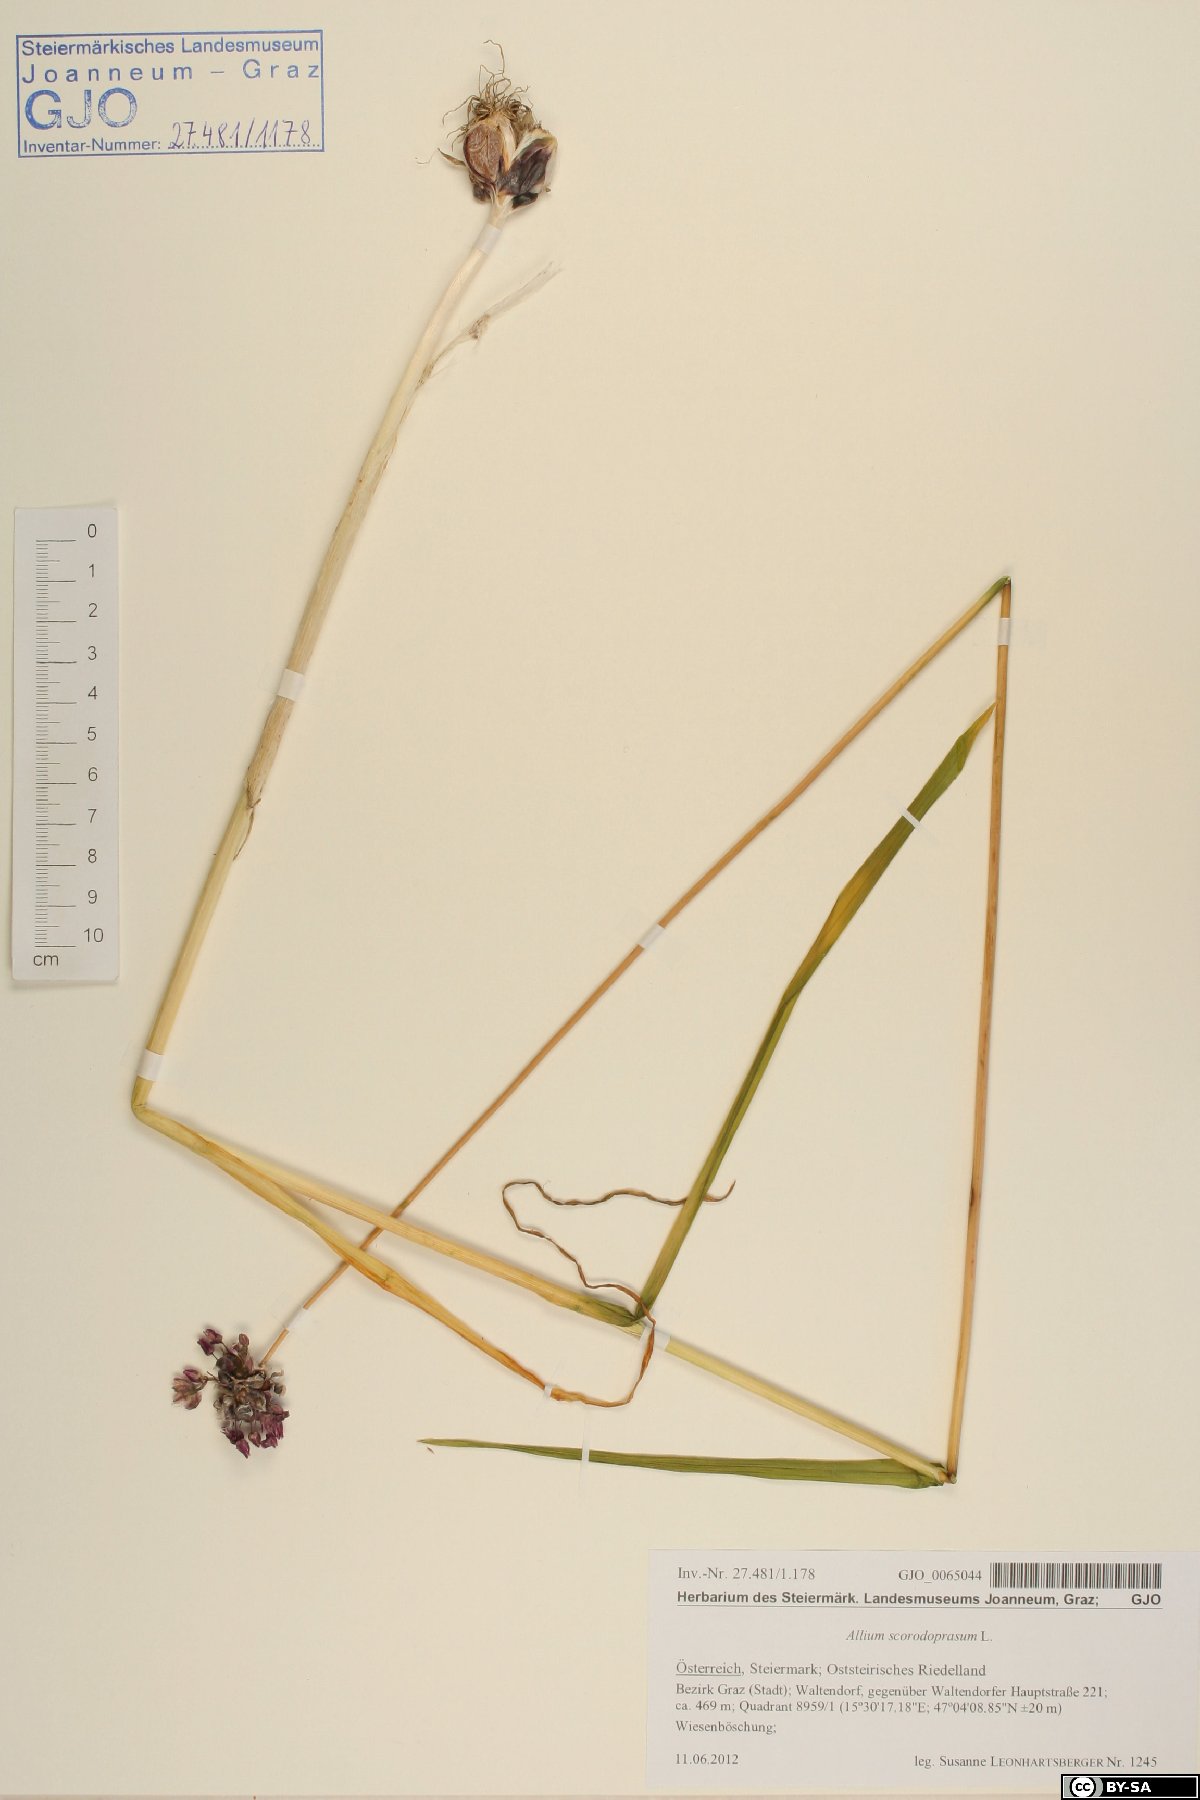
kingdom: Plantae
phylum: Tracheophyta
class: Liliopsida
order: Asparagales
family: Amaryllidaceae
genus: Allium
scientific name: Allium scorodoprasum
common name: Sand leek
